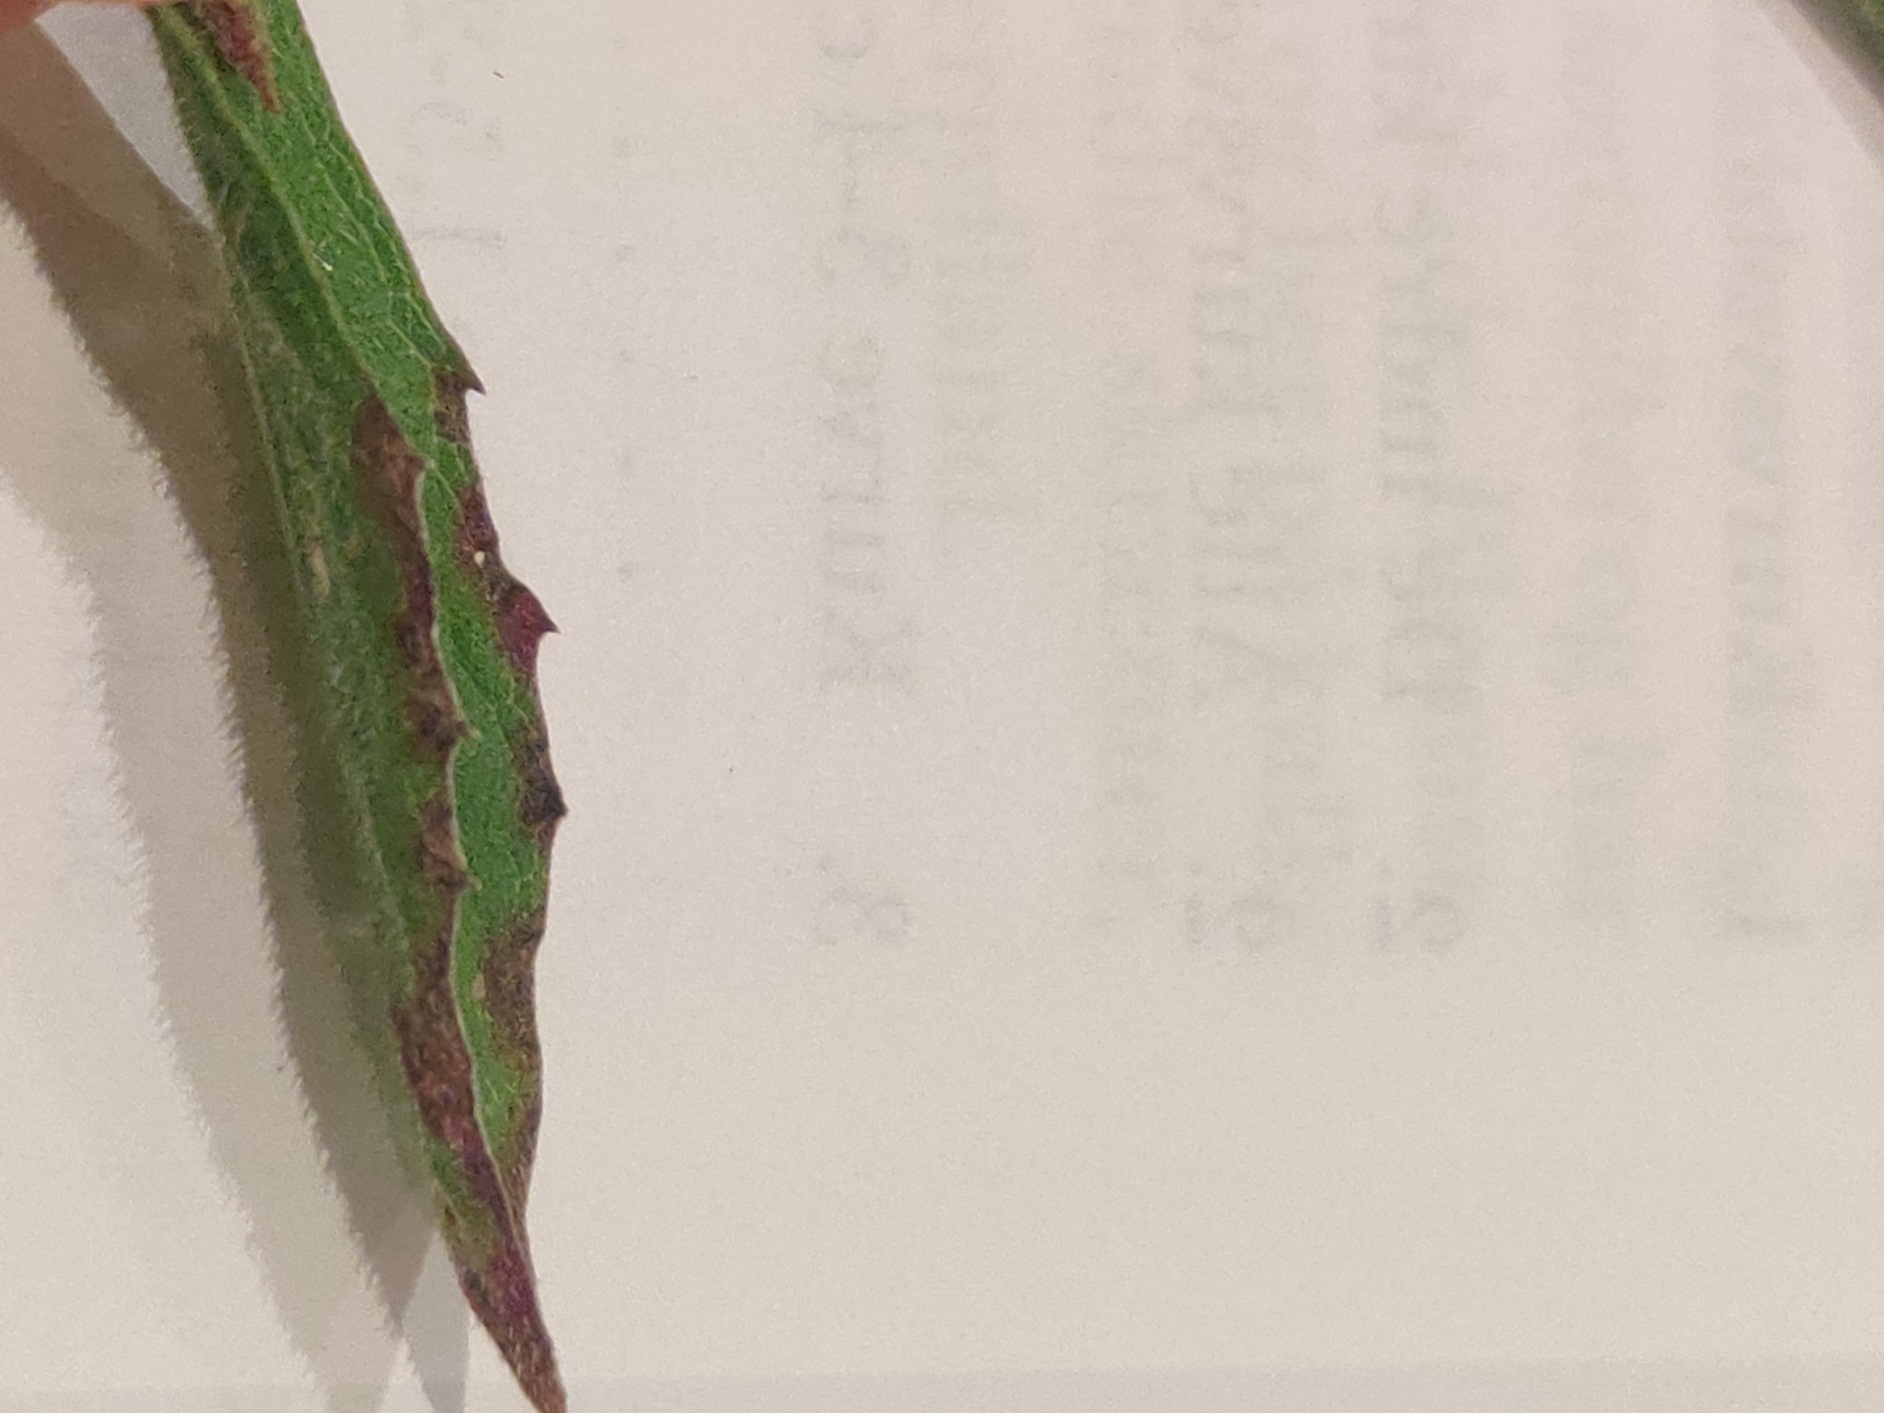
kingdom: Plantae
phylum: Tracheophyta
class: Magnoliopsida
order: Asterales
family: Asteraceae
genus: Centaurea
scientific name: Centaurea jacea
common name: Almindelig knopurt
